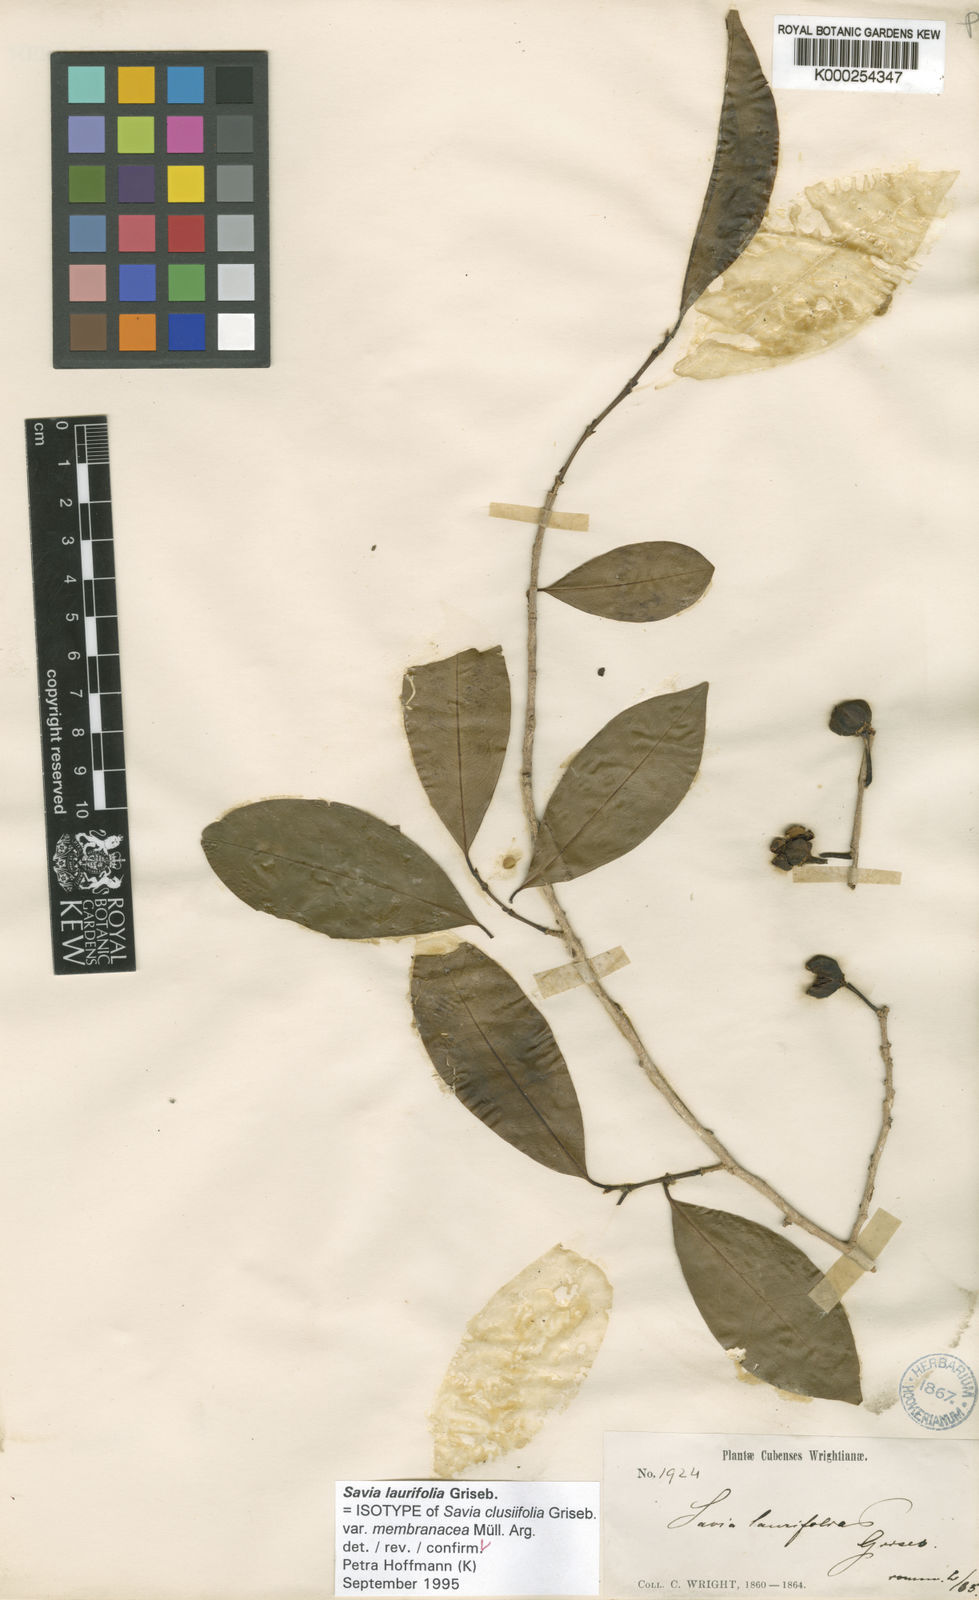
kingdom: Plantae
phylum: Tracheophyta
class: Magnoliopsida
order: Malpighiales
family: Phyllanthaceae
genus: Heterosavia
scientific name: Heterosavia laurifolia
